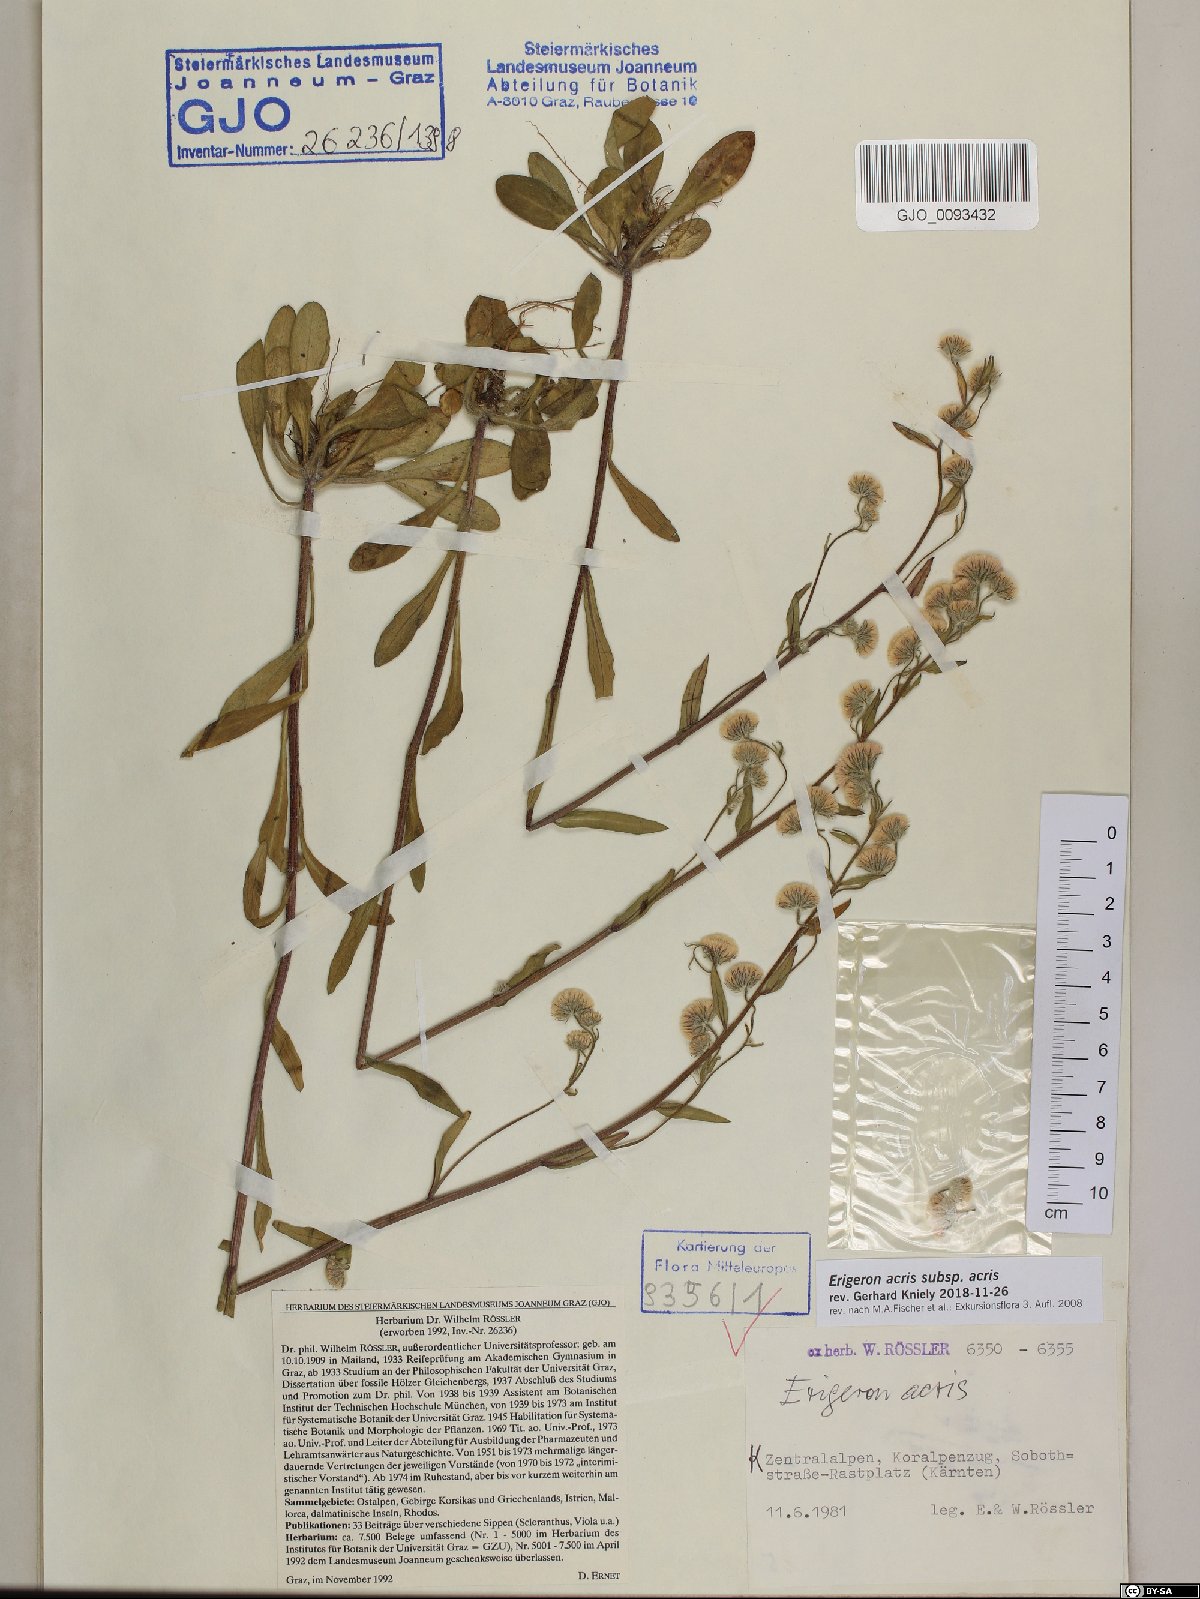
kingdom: Plantae
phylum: Tracheophyta
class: Magnoliopsida
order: Asterales
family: Asteraceae
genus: Erigeron
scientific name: Erigeron acris
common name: Blue fleabane
